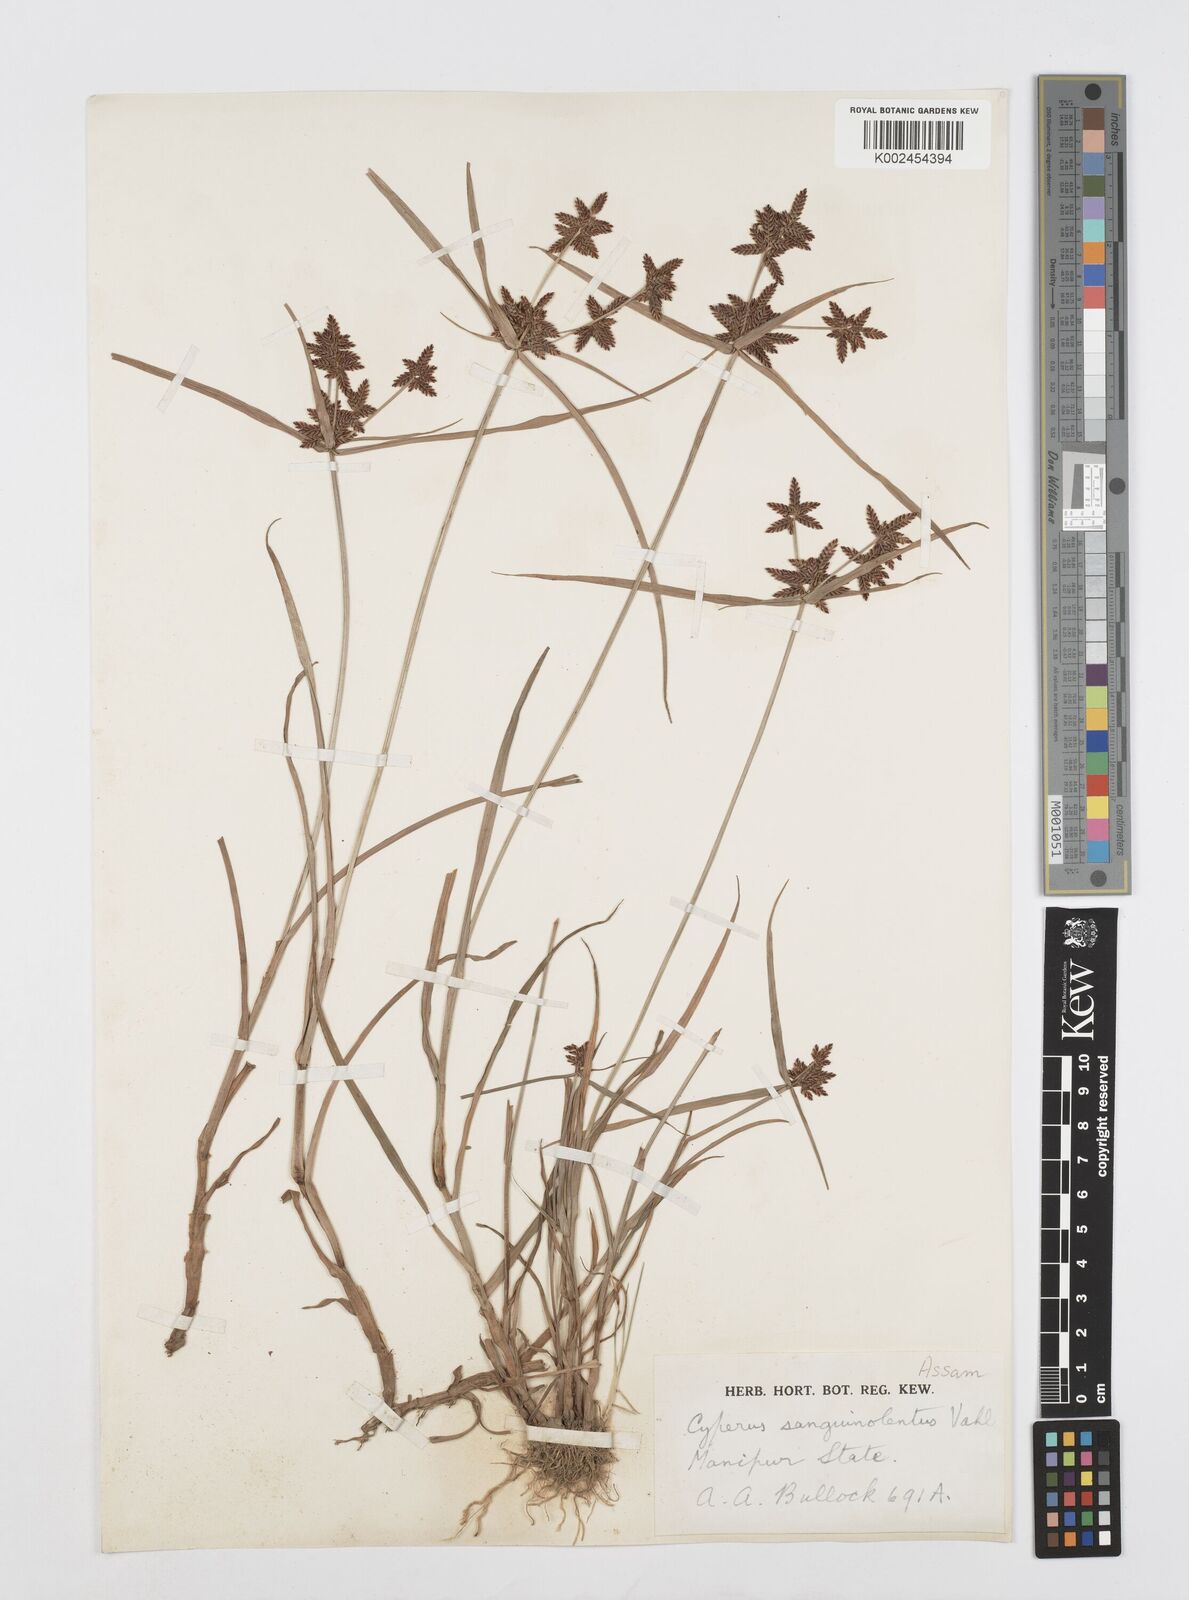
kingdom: Plantae
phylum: Tracheophyta
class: Liliopsida
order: Poales
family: Cyperaceae
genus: Cyperus
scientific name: Cyperus sanguinolentus
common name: Purpleglume flatsedge
